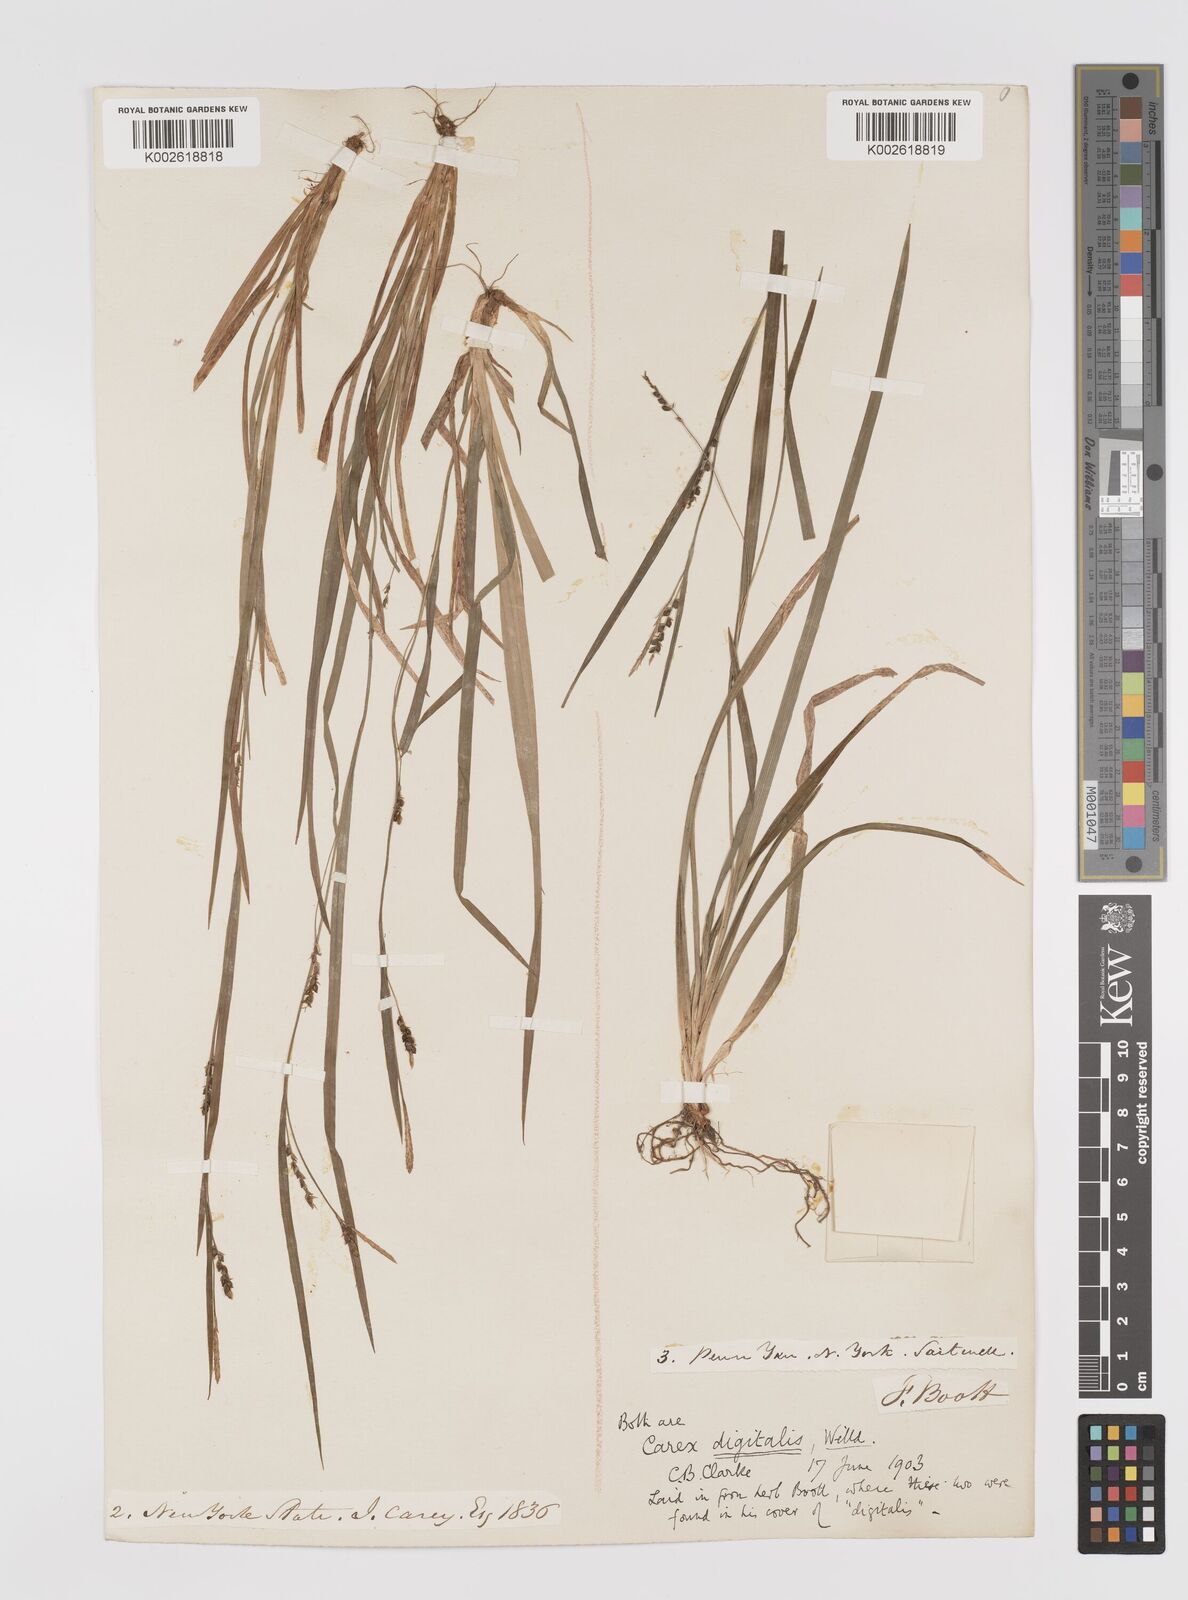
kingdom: Plantae
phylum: Tracheophyta
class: Liliopsida
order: Poales
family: Cyperaceae
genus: Carex
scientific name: Carex digitalis
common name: Slender wood sedge
